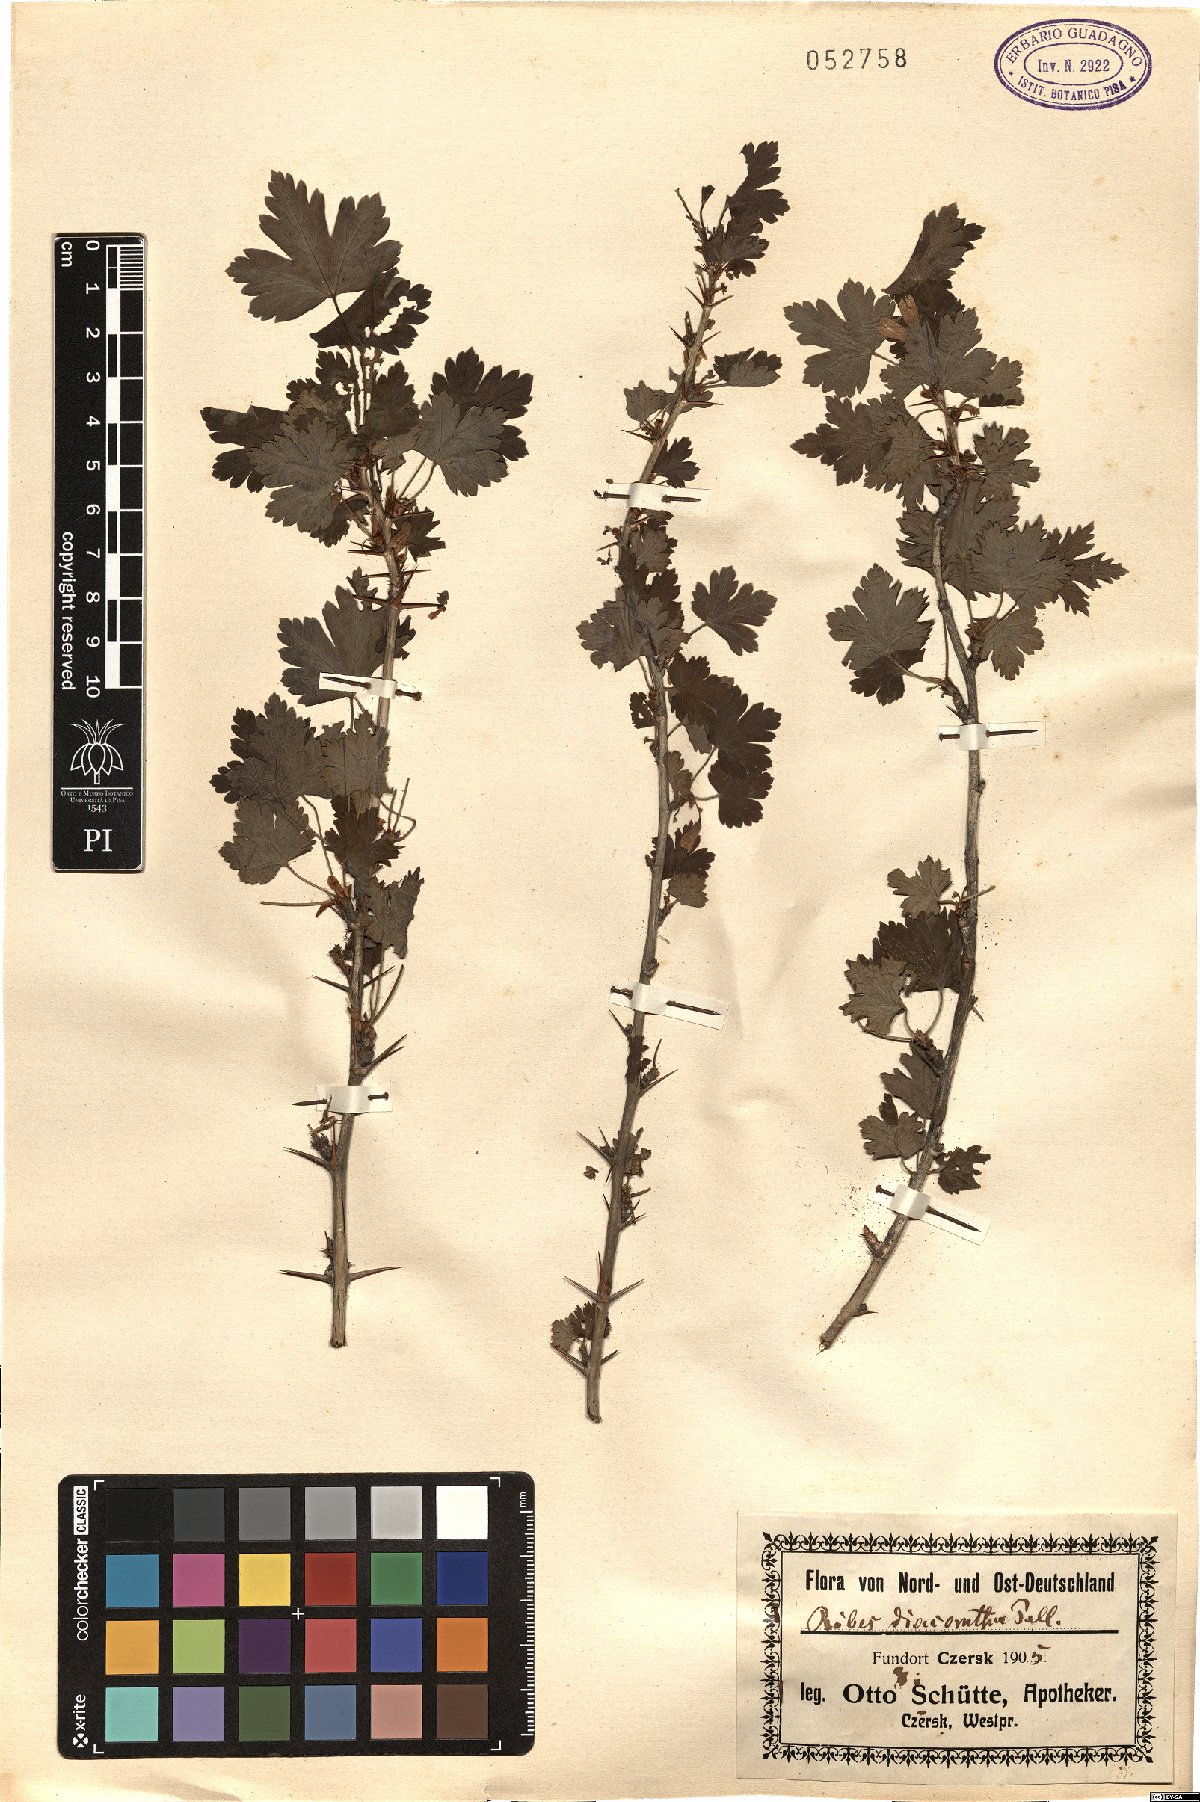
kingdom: Plantae
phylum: Tracheophyta
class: Magnoliopsida
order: Saxifragales
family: Grossulariaceae
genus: Ribes
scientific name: Ribes diacanthum
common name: Siberian currant
